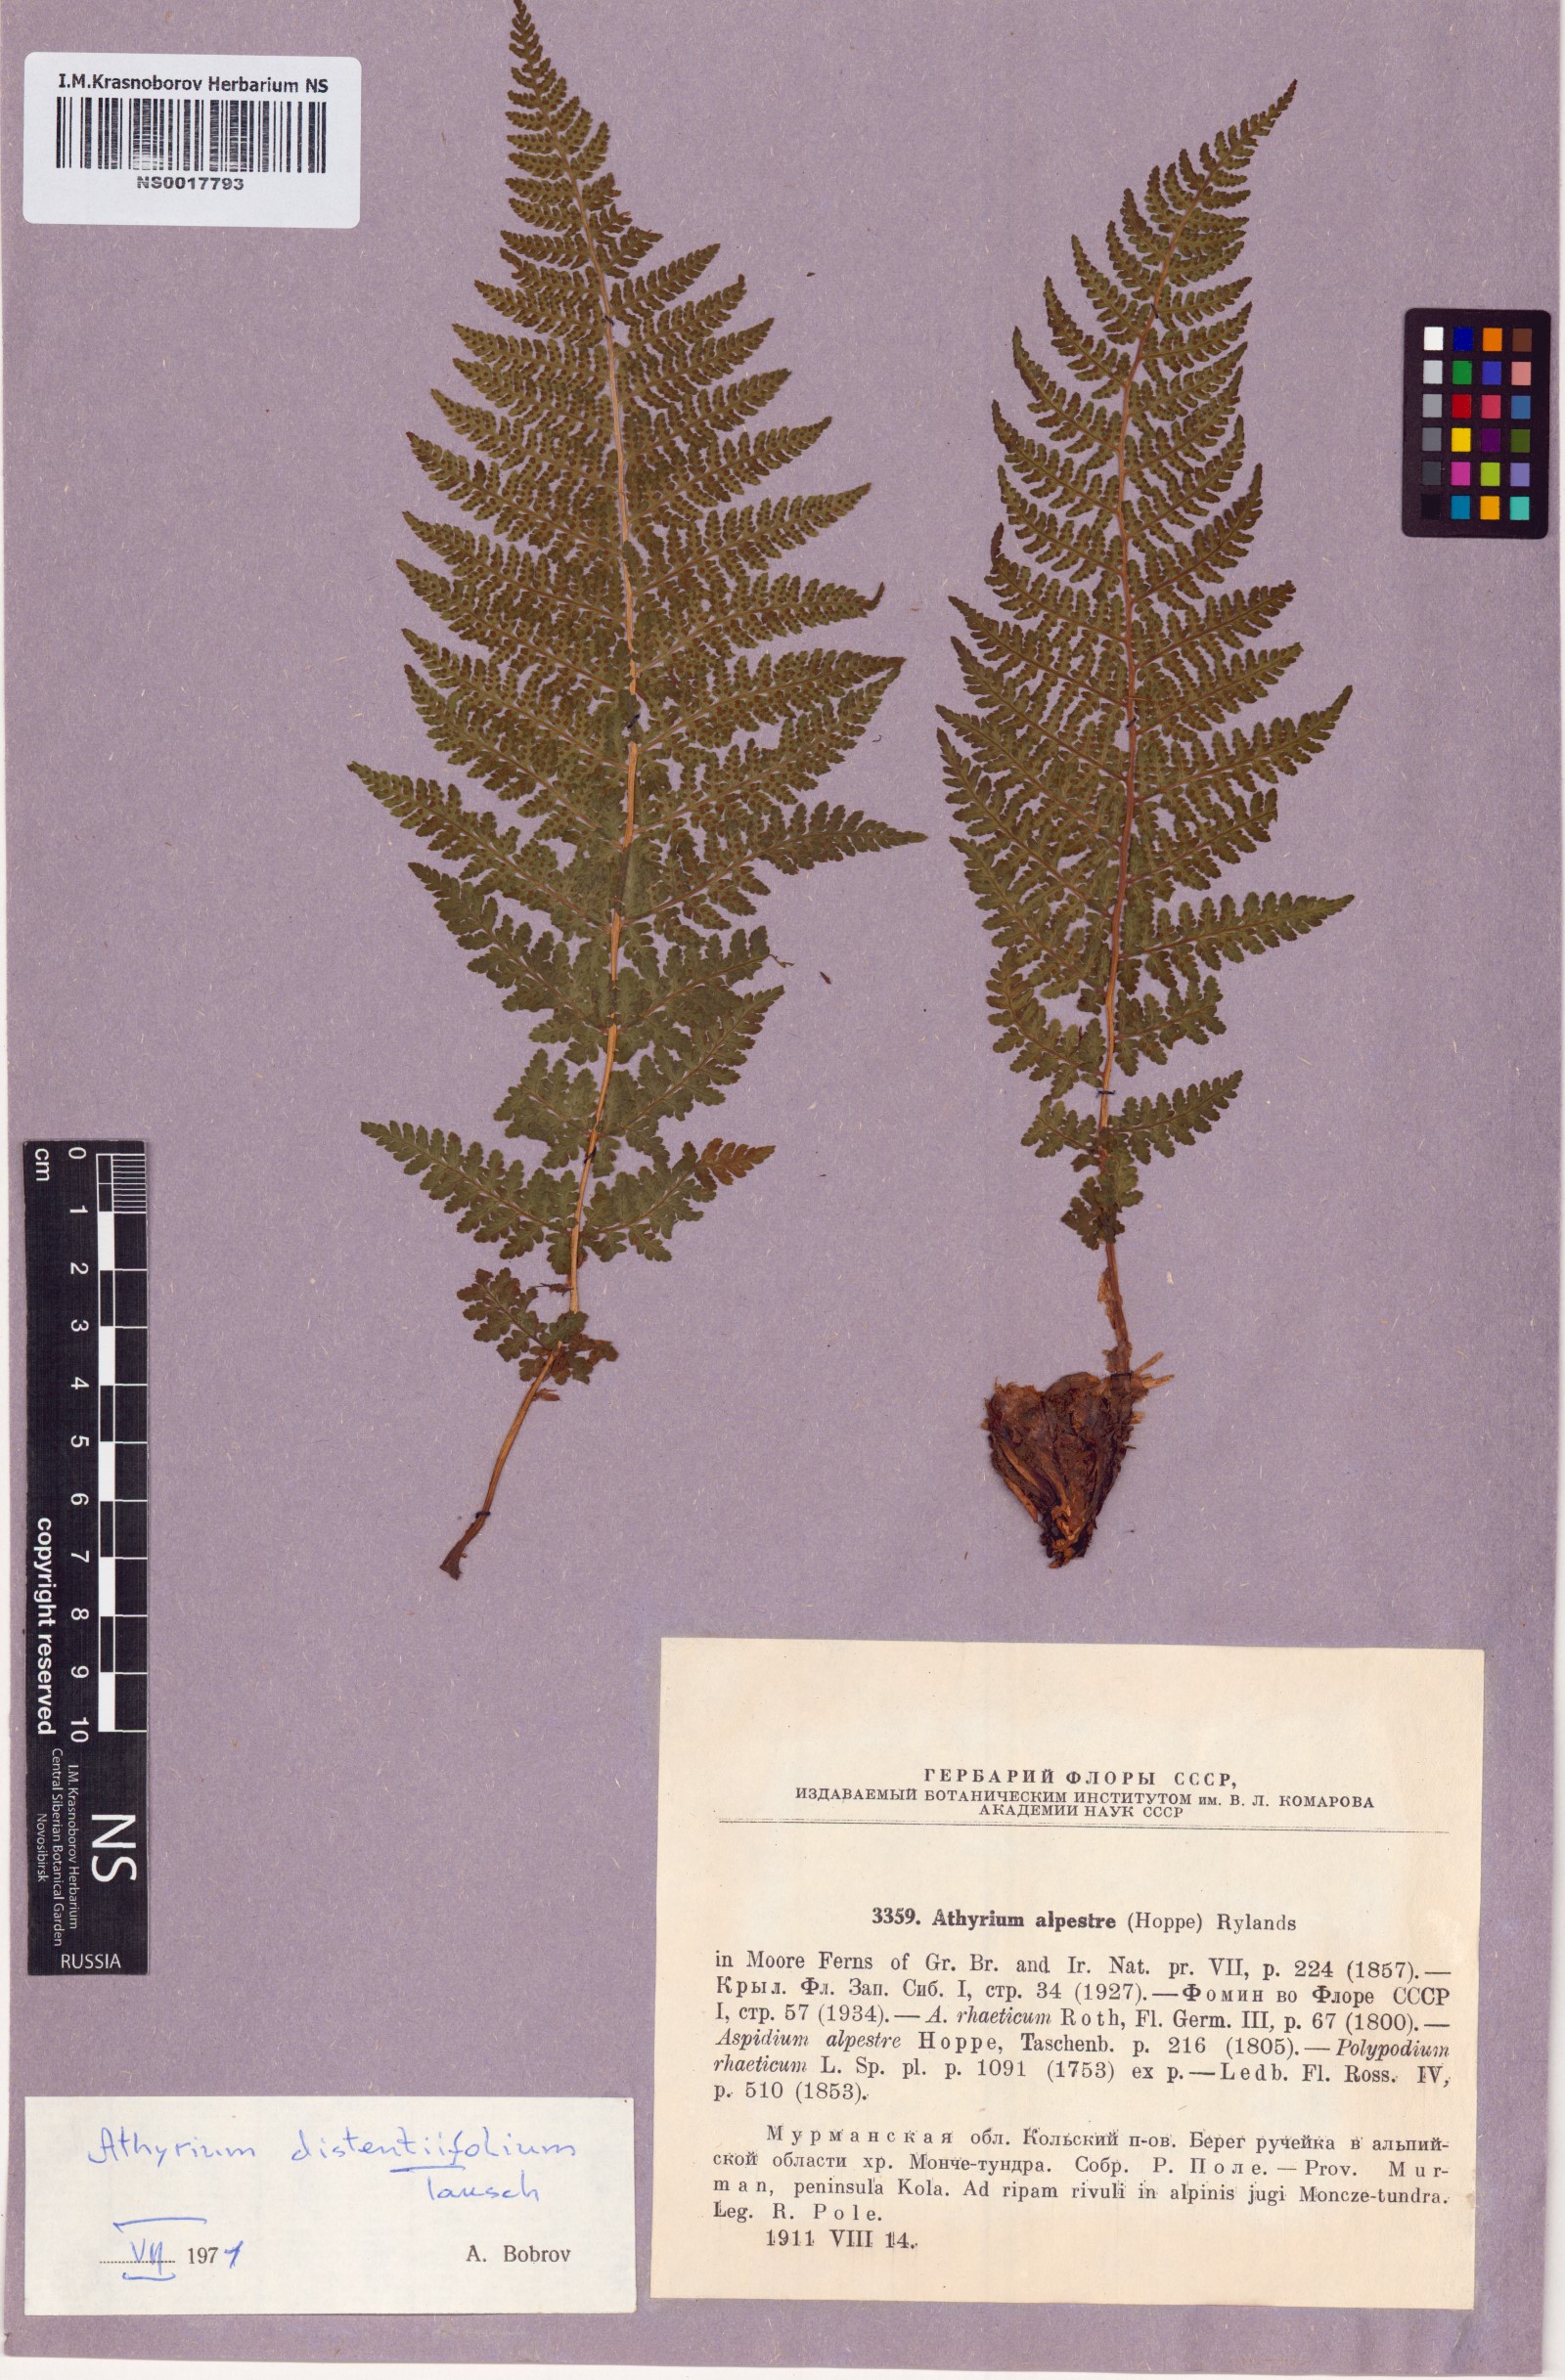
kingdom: Plantae
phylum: Tracheophyta
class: Polypodiopsida
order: Polypodiales
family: Athyriaceae
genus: Pseudathyrium
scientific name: Pseudathyrium alpestre
